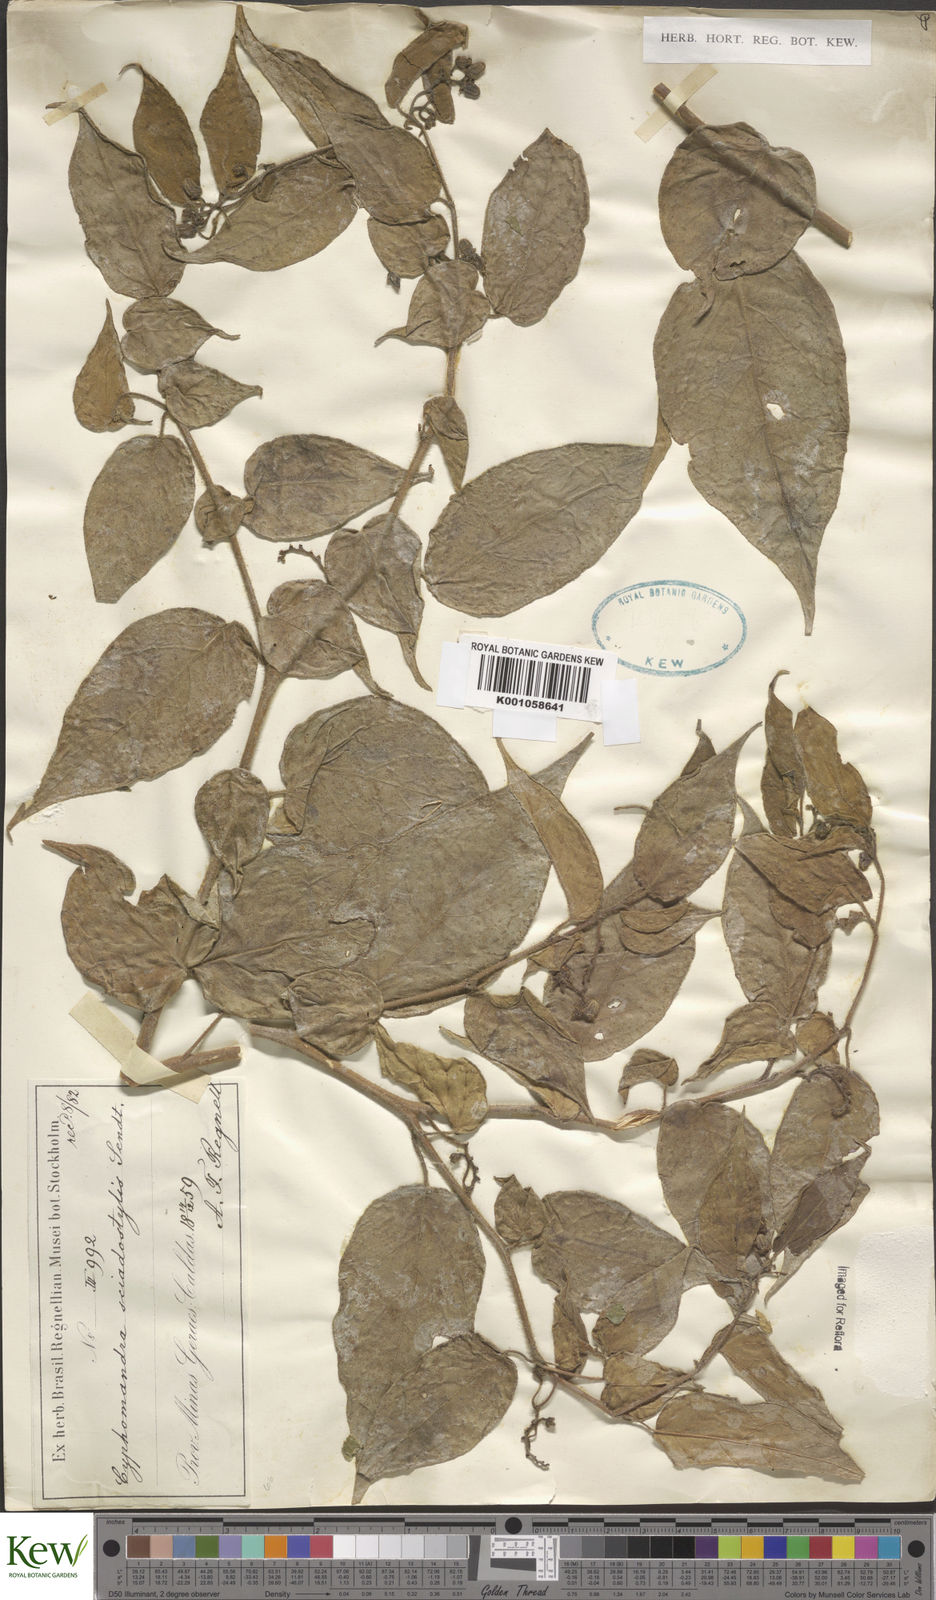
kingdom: Plantae
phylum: Tracheophyta
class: Magnoliopsida
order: Solanales
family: Solanaceae
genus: Solanum
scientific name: Solanum sciadostylis
